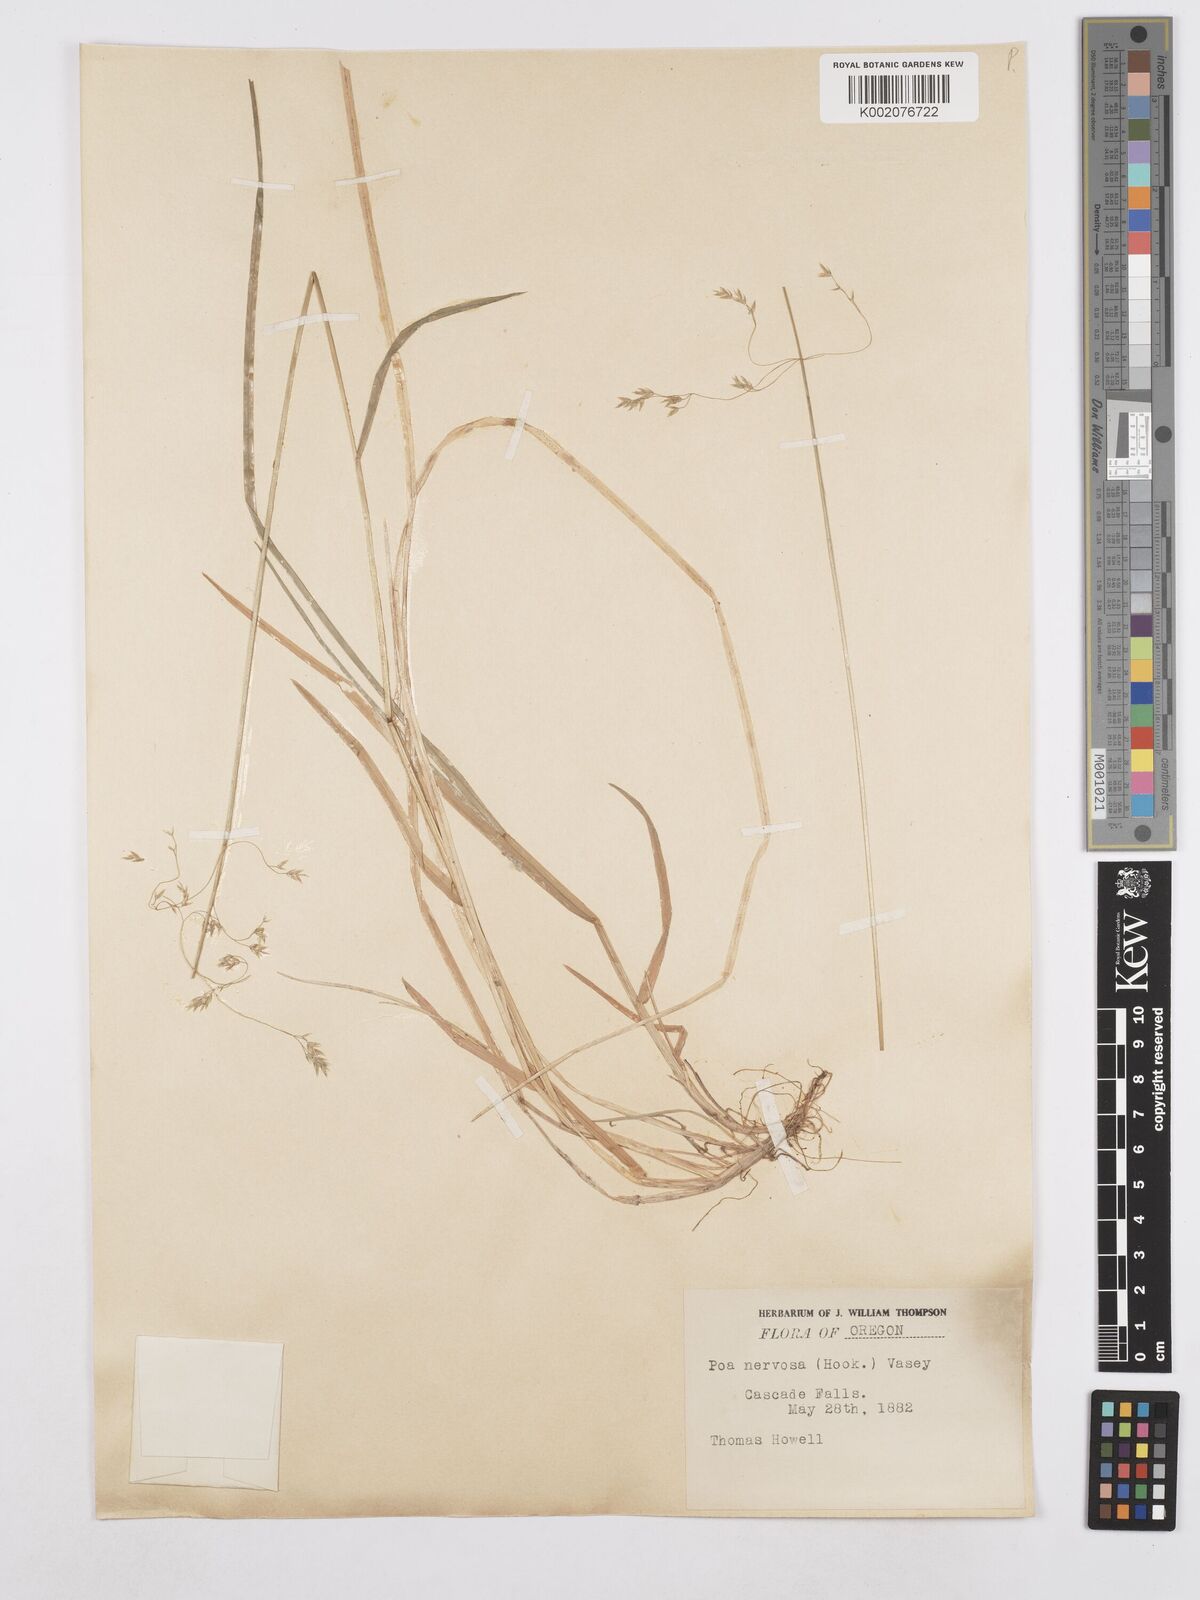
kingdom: Plantae
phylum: Tracheophyta
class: Liliopsida
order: Poales
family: Poaceae
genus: Poa
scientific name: Poa nervosa
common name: Hooker's bluegrass
